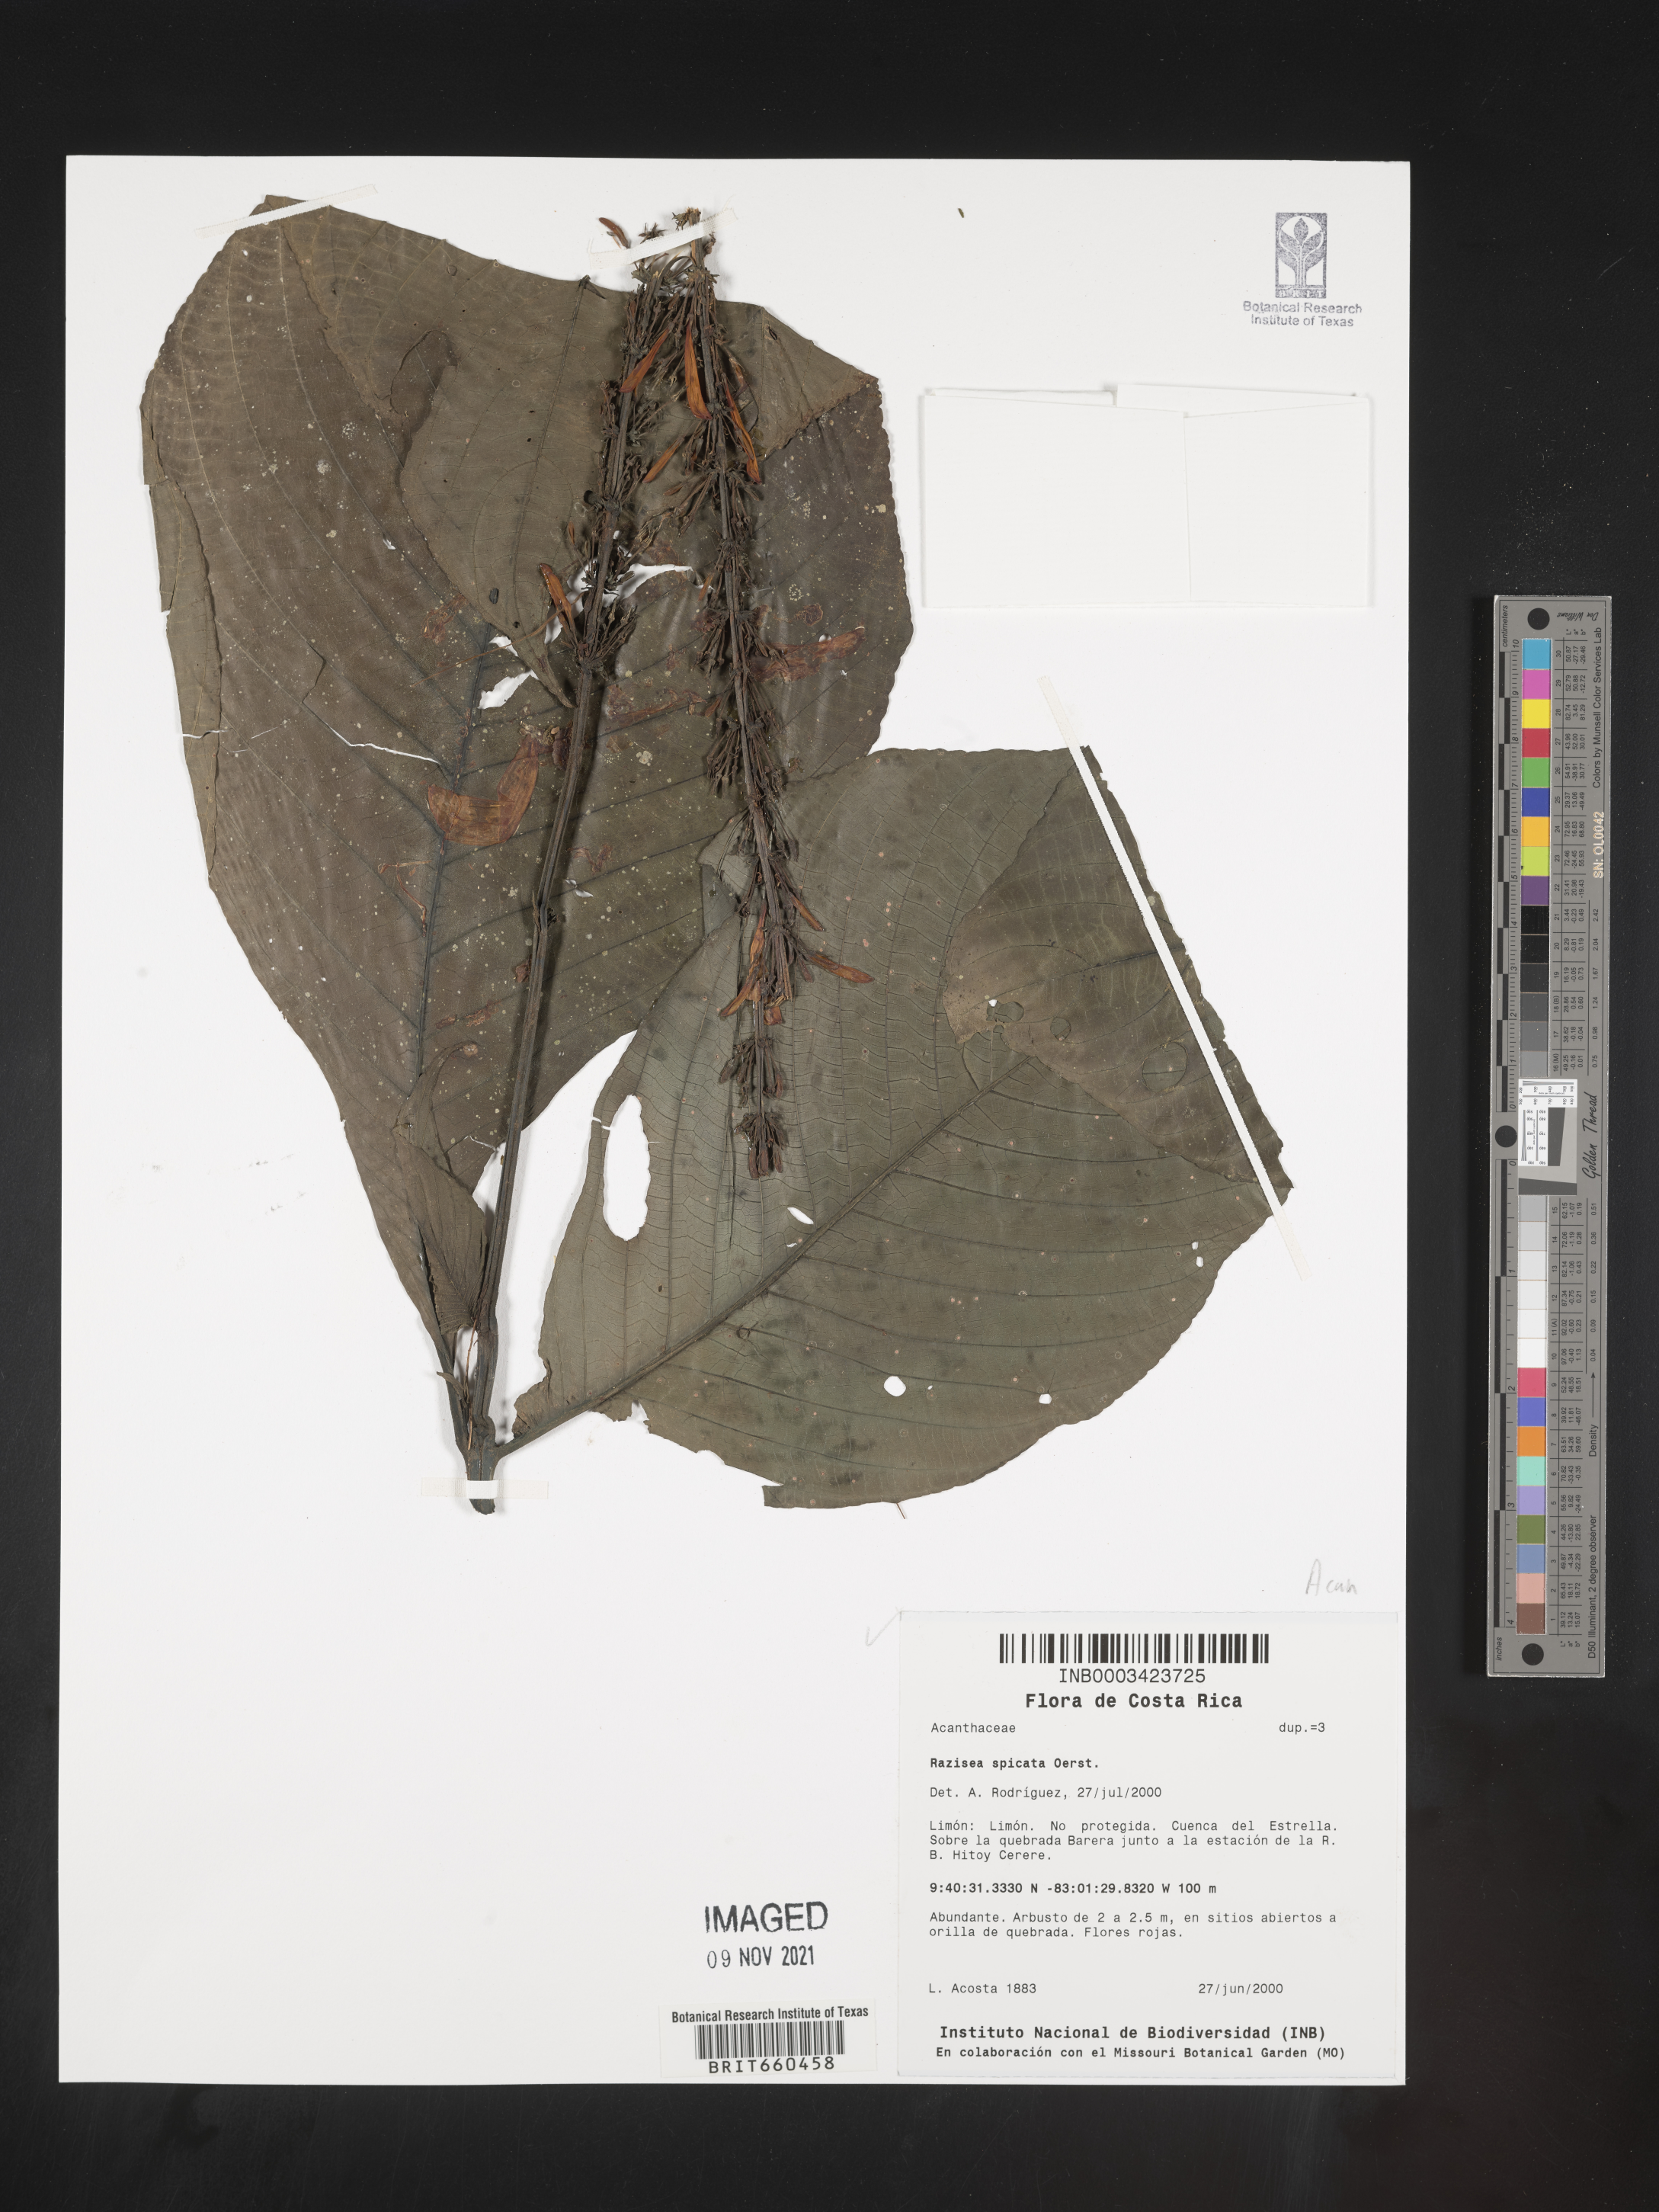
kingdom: Plantae
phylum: Tracheophyta
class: Magnoliopsida
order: Lamiales
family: Acanthaceae
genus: Stenostephanus
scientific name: Stenostephanus
